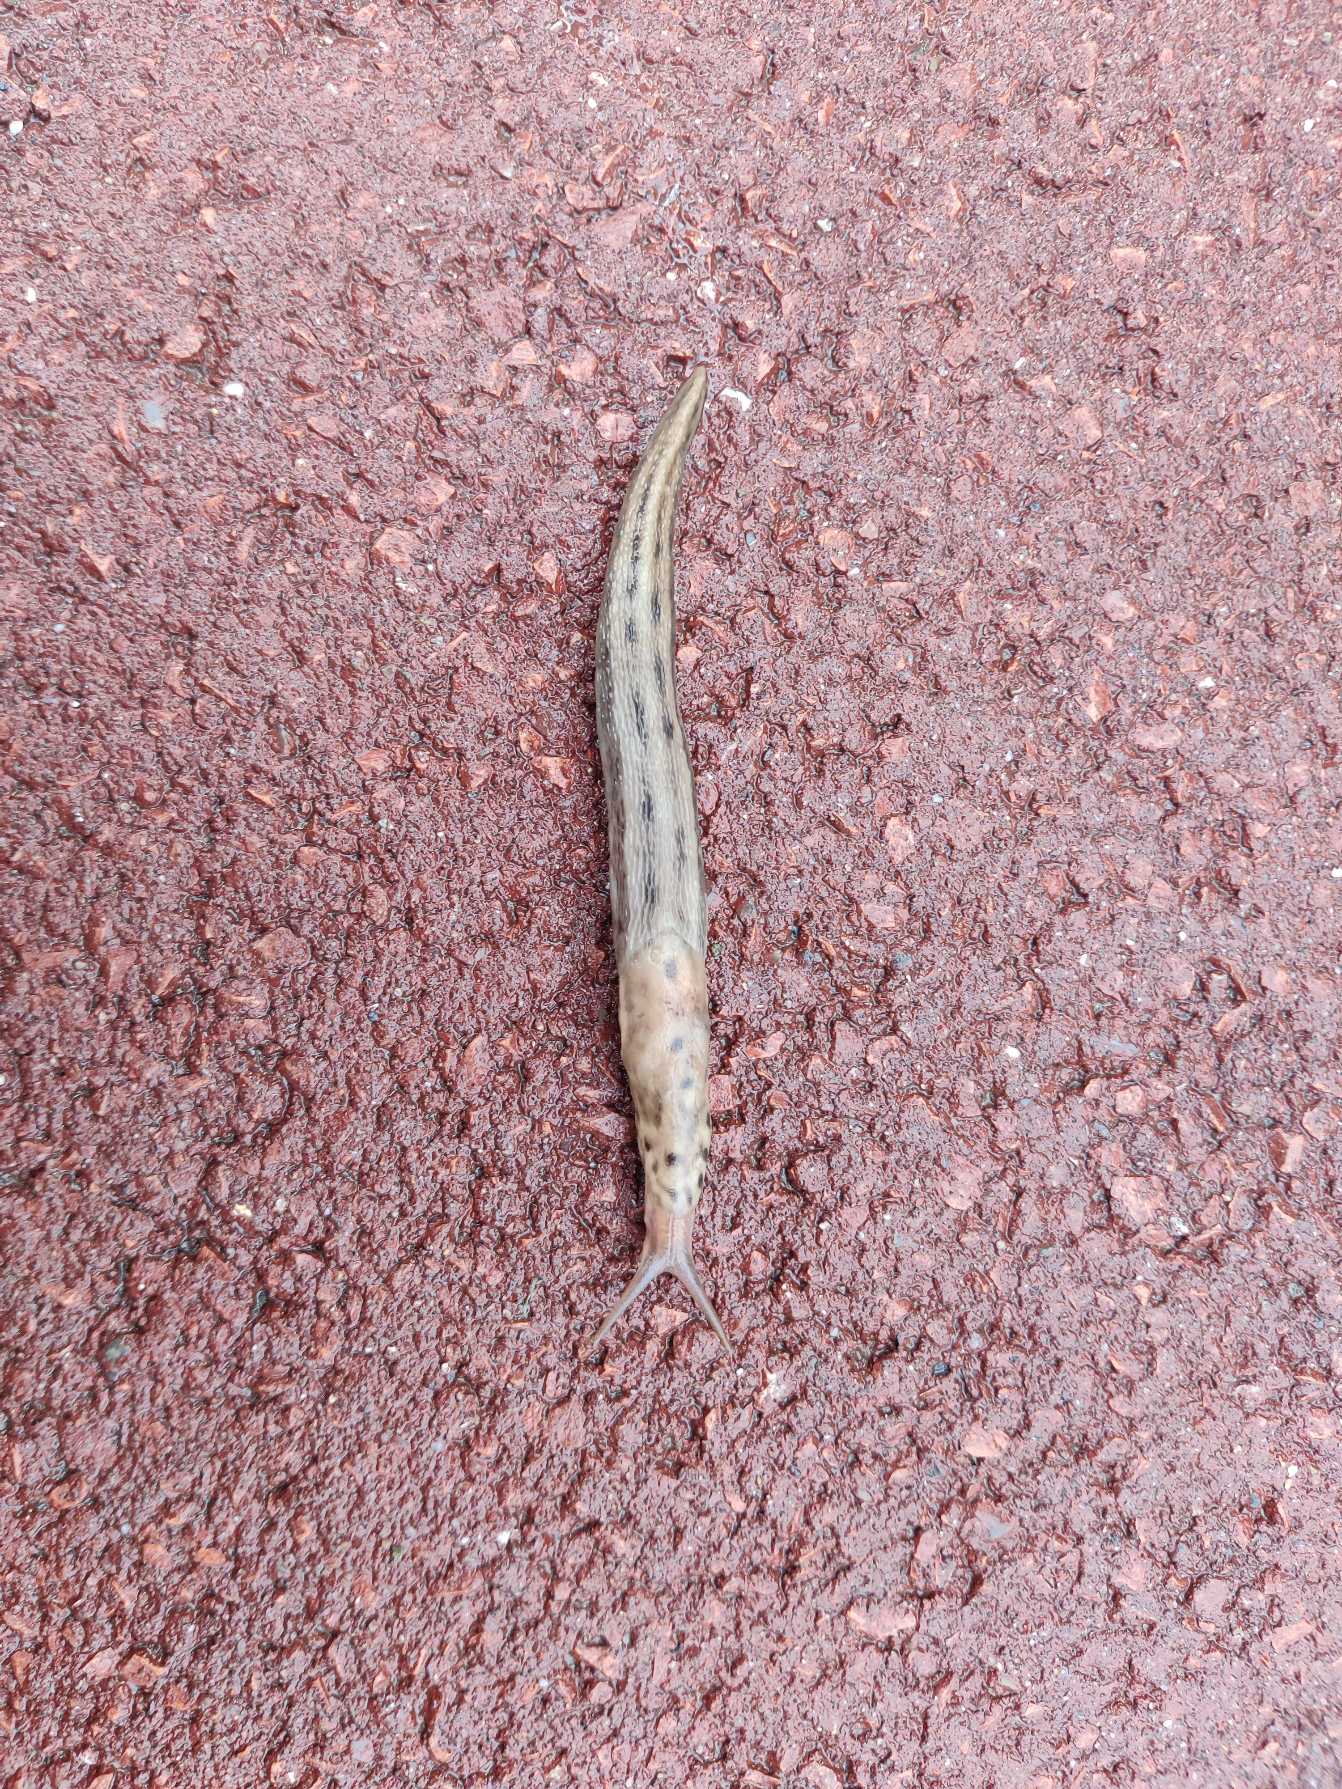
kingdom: Animalia
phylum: Mollusca
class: Gastropoda
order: Stylommatophora
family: Limacidae
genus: Limax
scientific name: Limax maximus
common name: Pantersnegl
